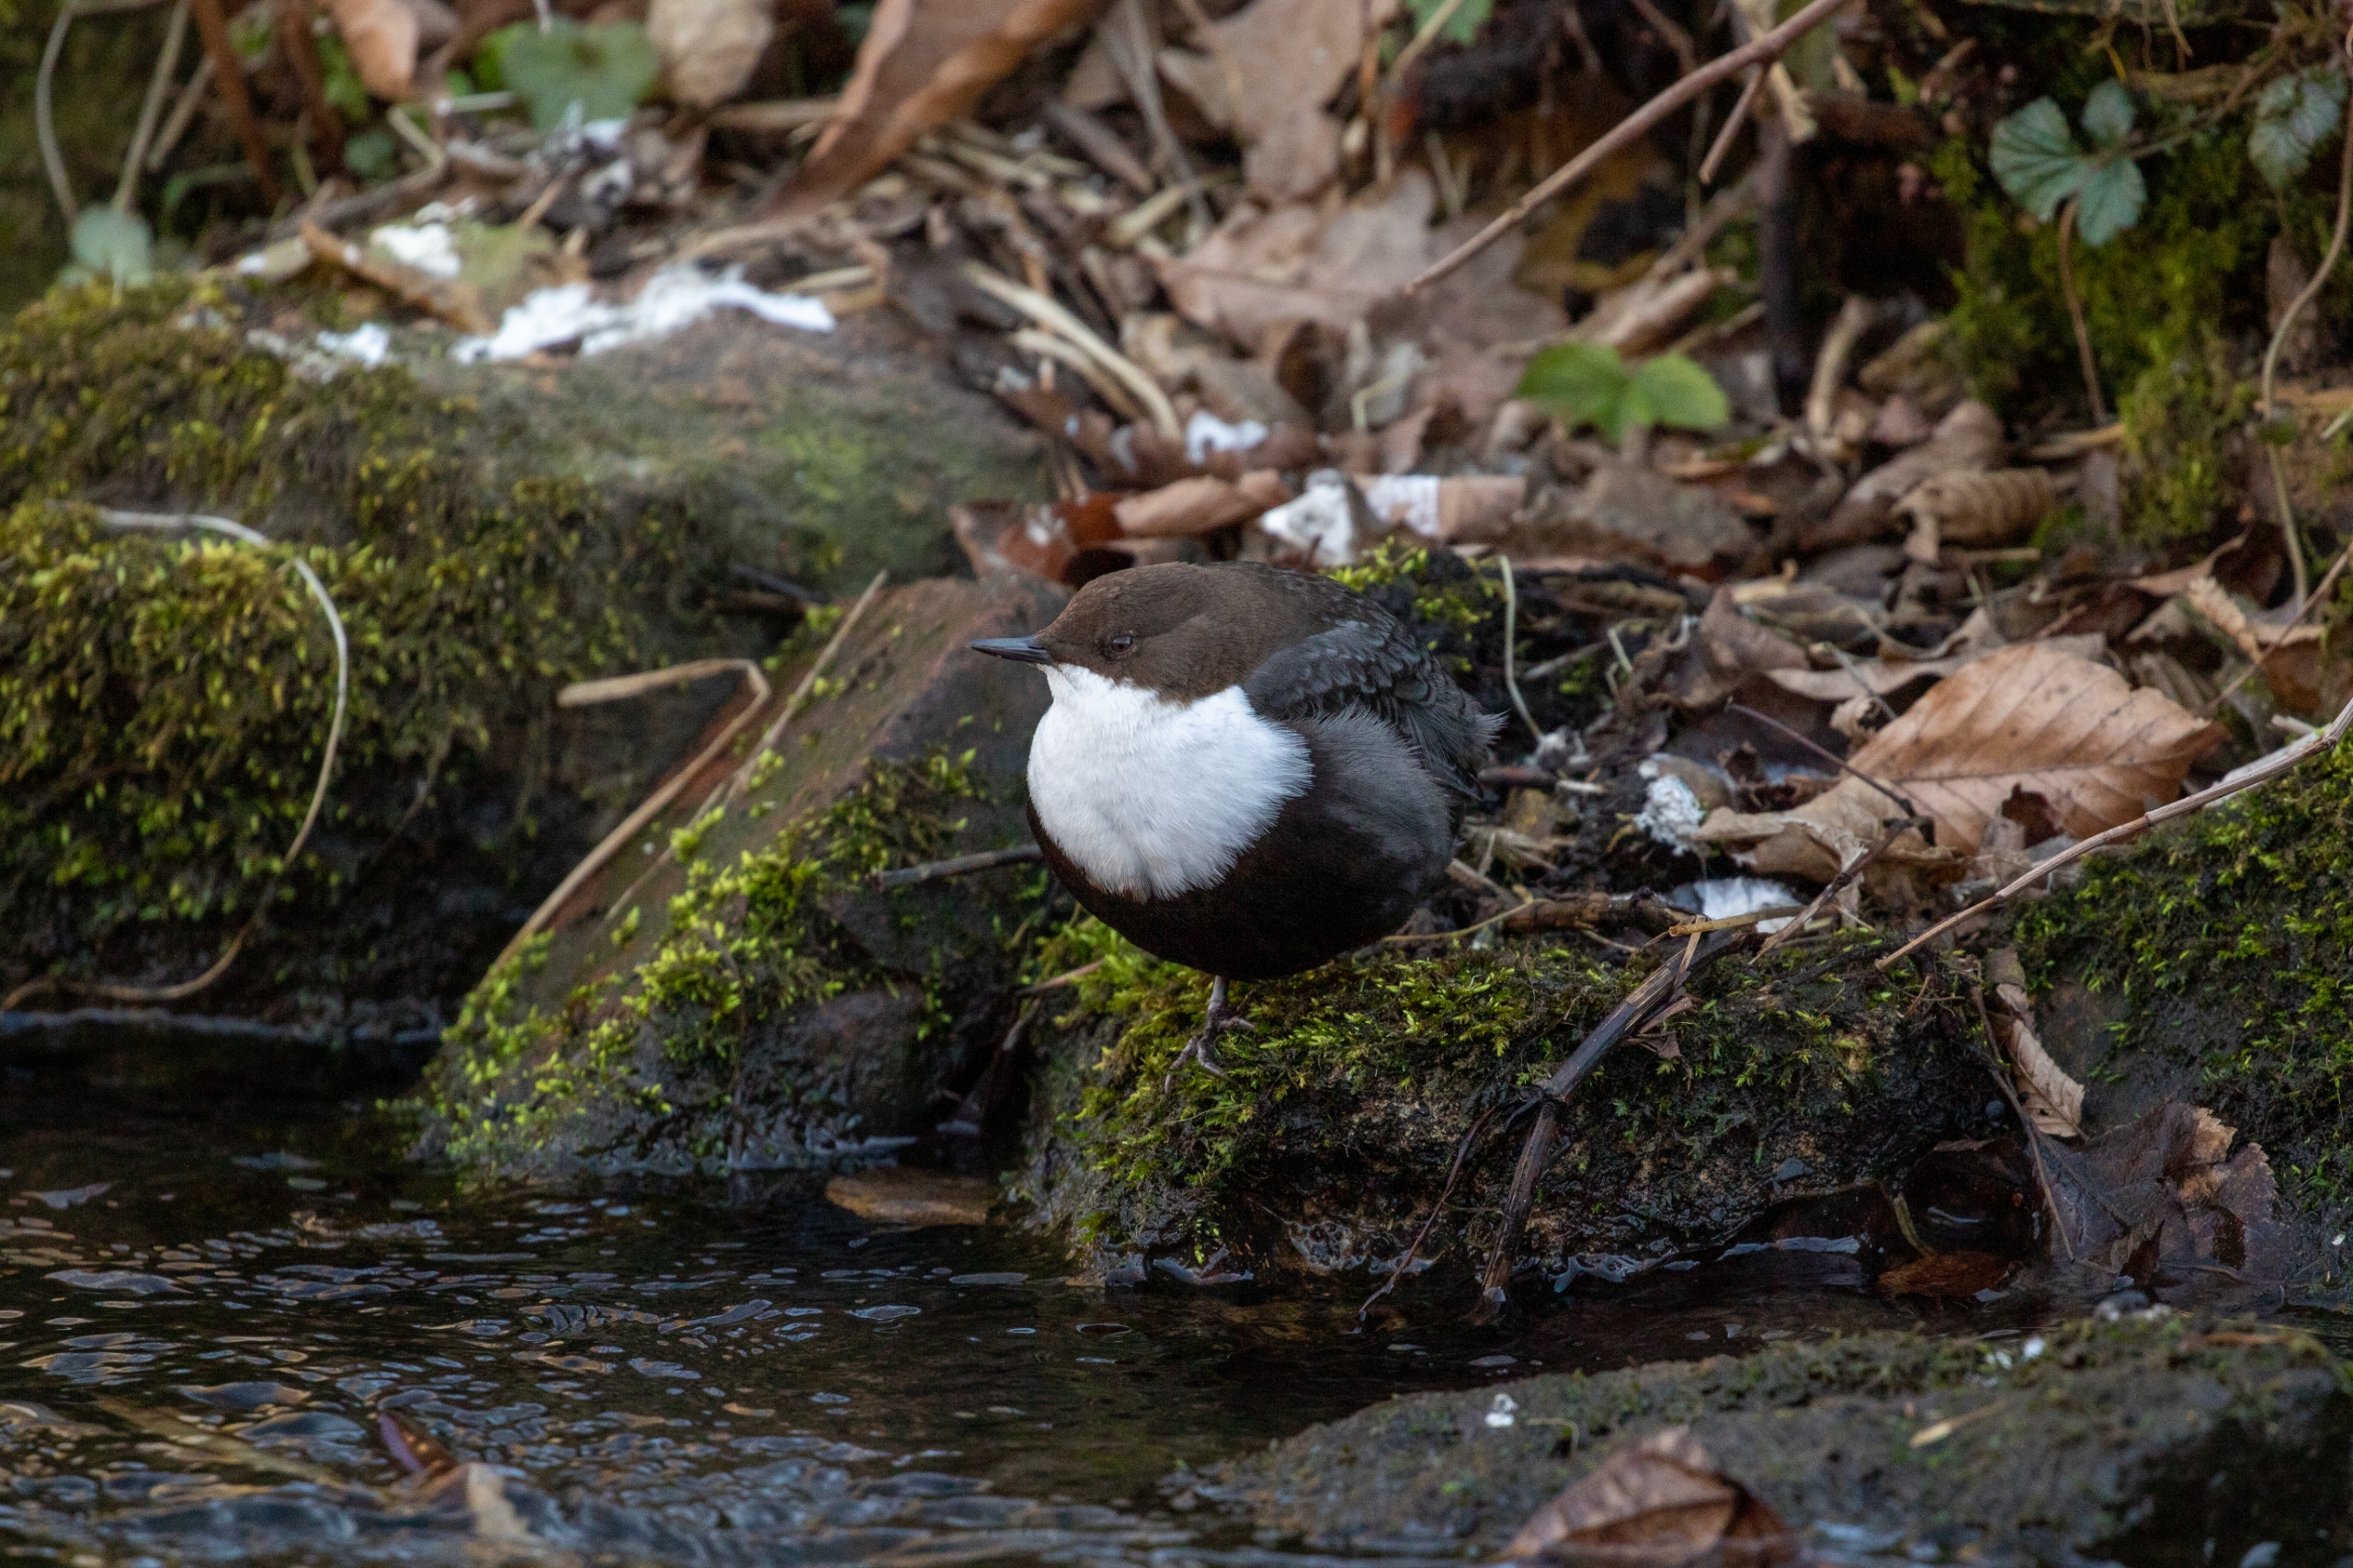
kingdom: Animalia
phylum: Chordata
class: Aves
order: Passeriformes
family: Cinclidae
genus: Cinclus
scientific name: Cinclus cinclus
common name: Vandstær
